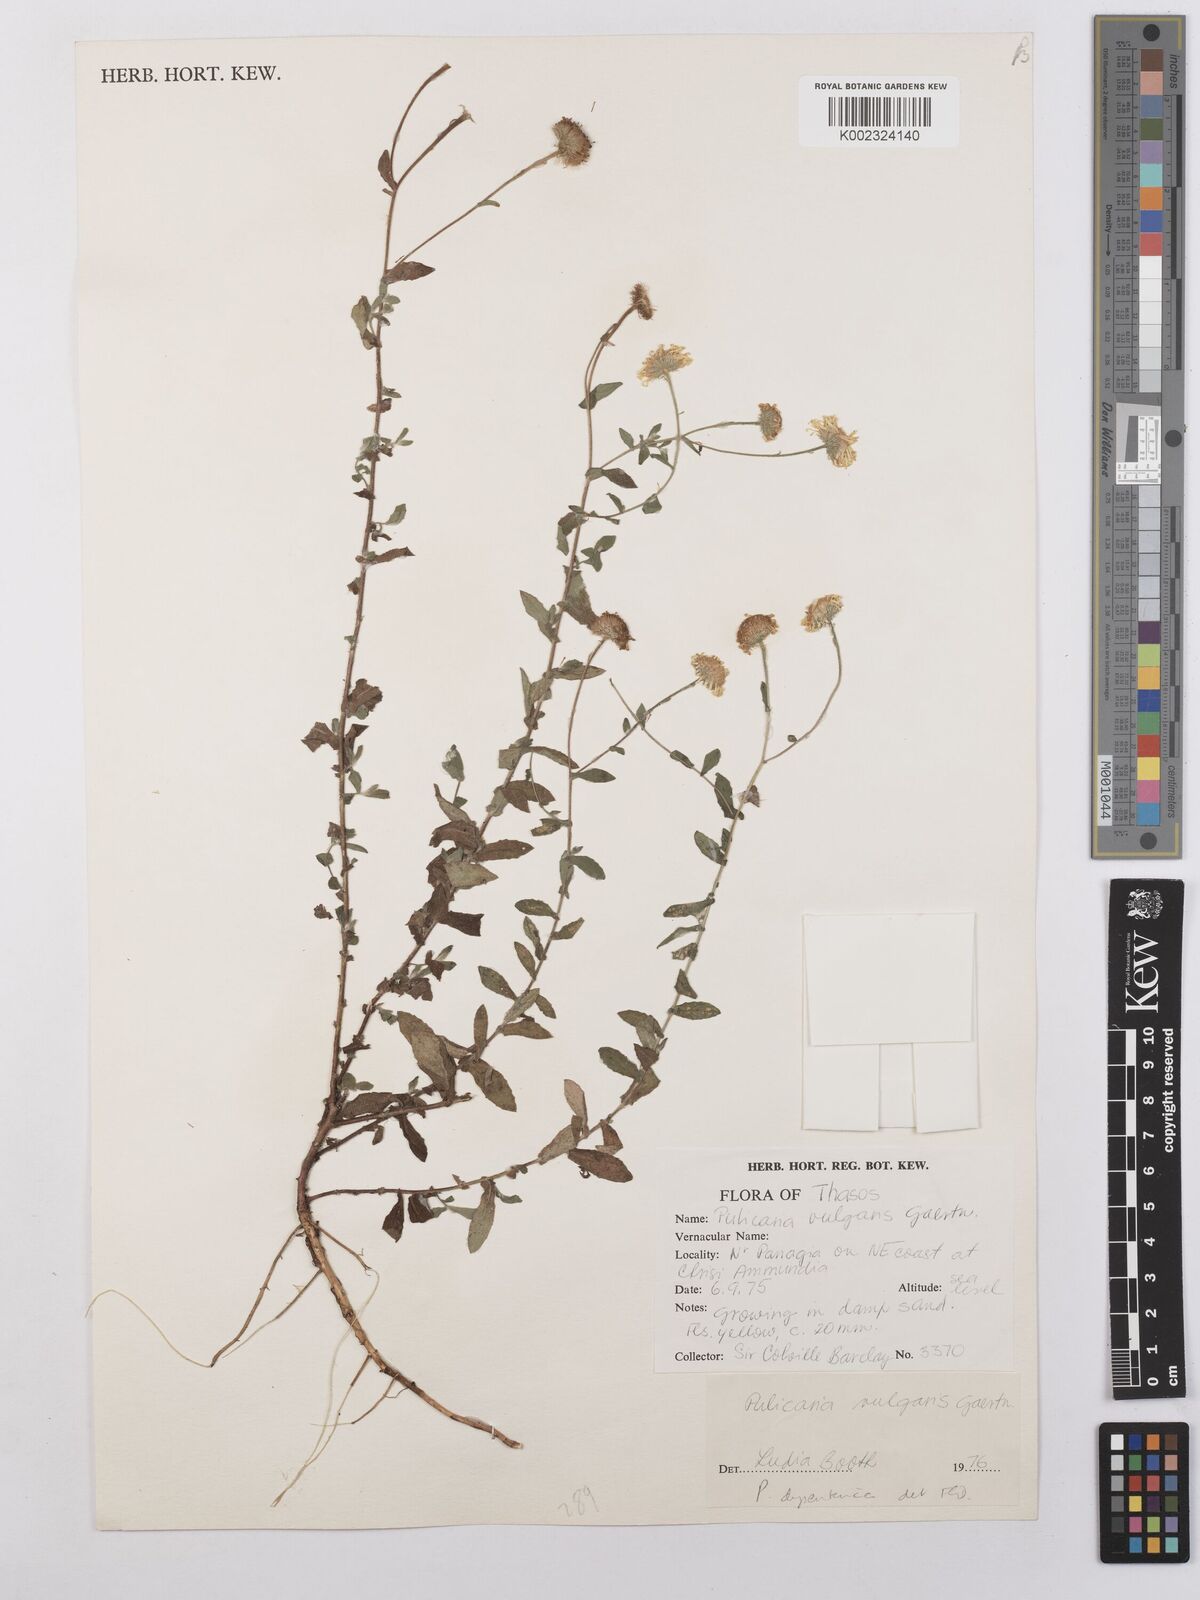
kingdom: Plantae
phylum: Tracheophyta
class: Magnoliopsida
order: Asterales
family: Asteraceae
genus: Pulicaria
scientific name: Pulicaria vulgaris
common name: Small fleabane
